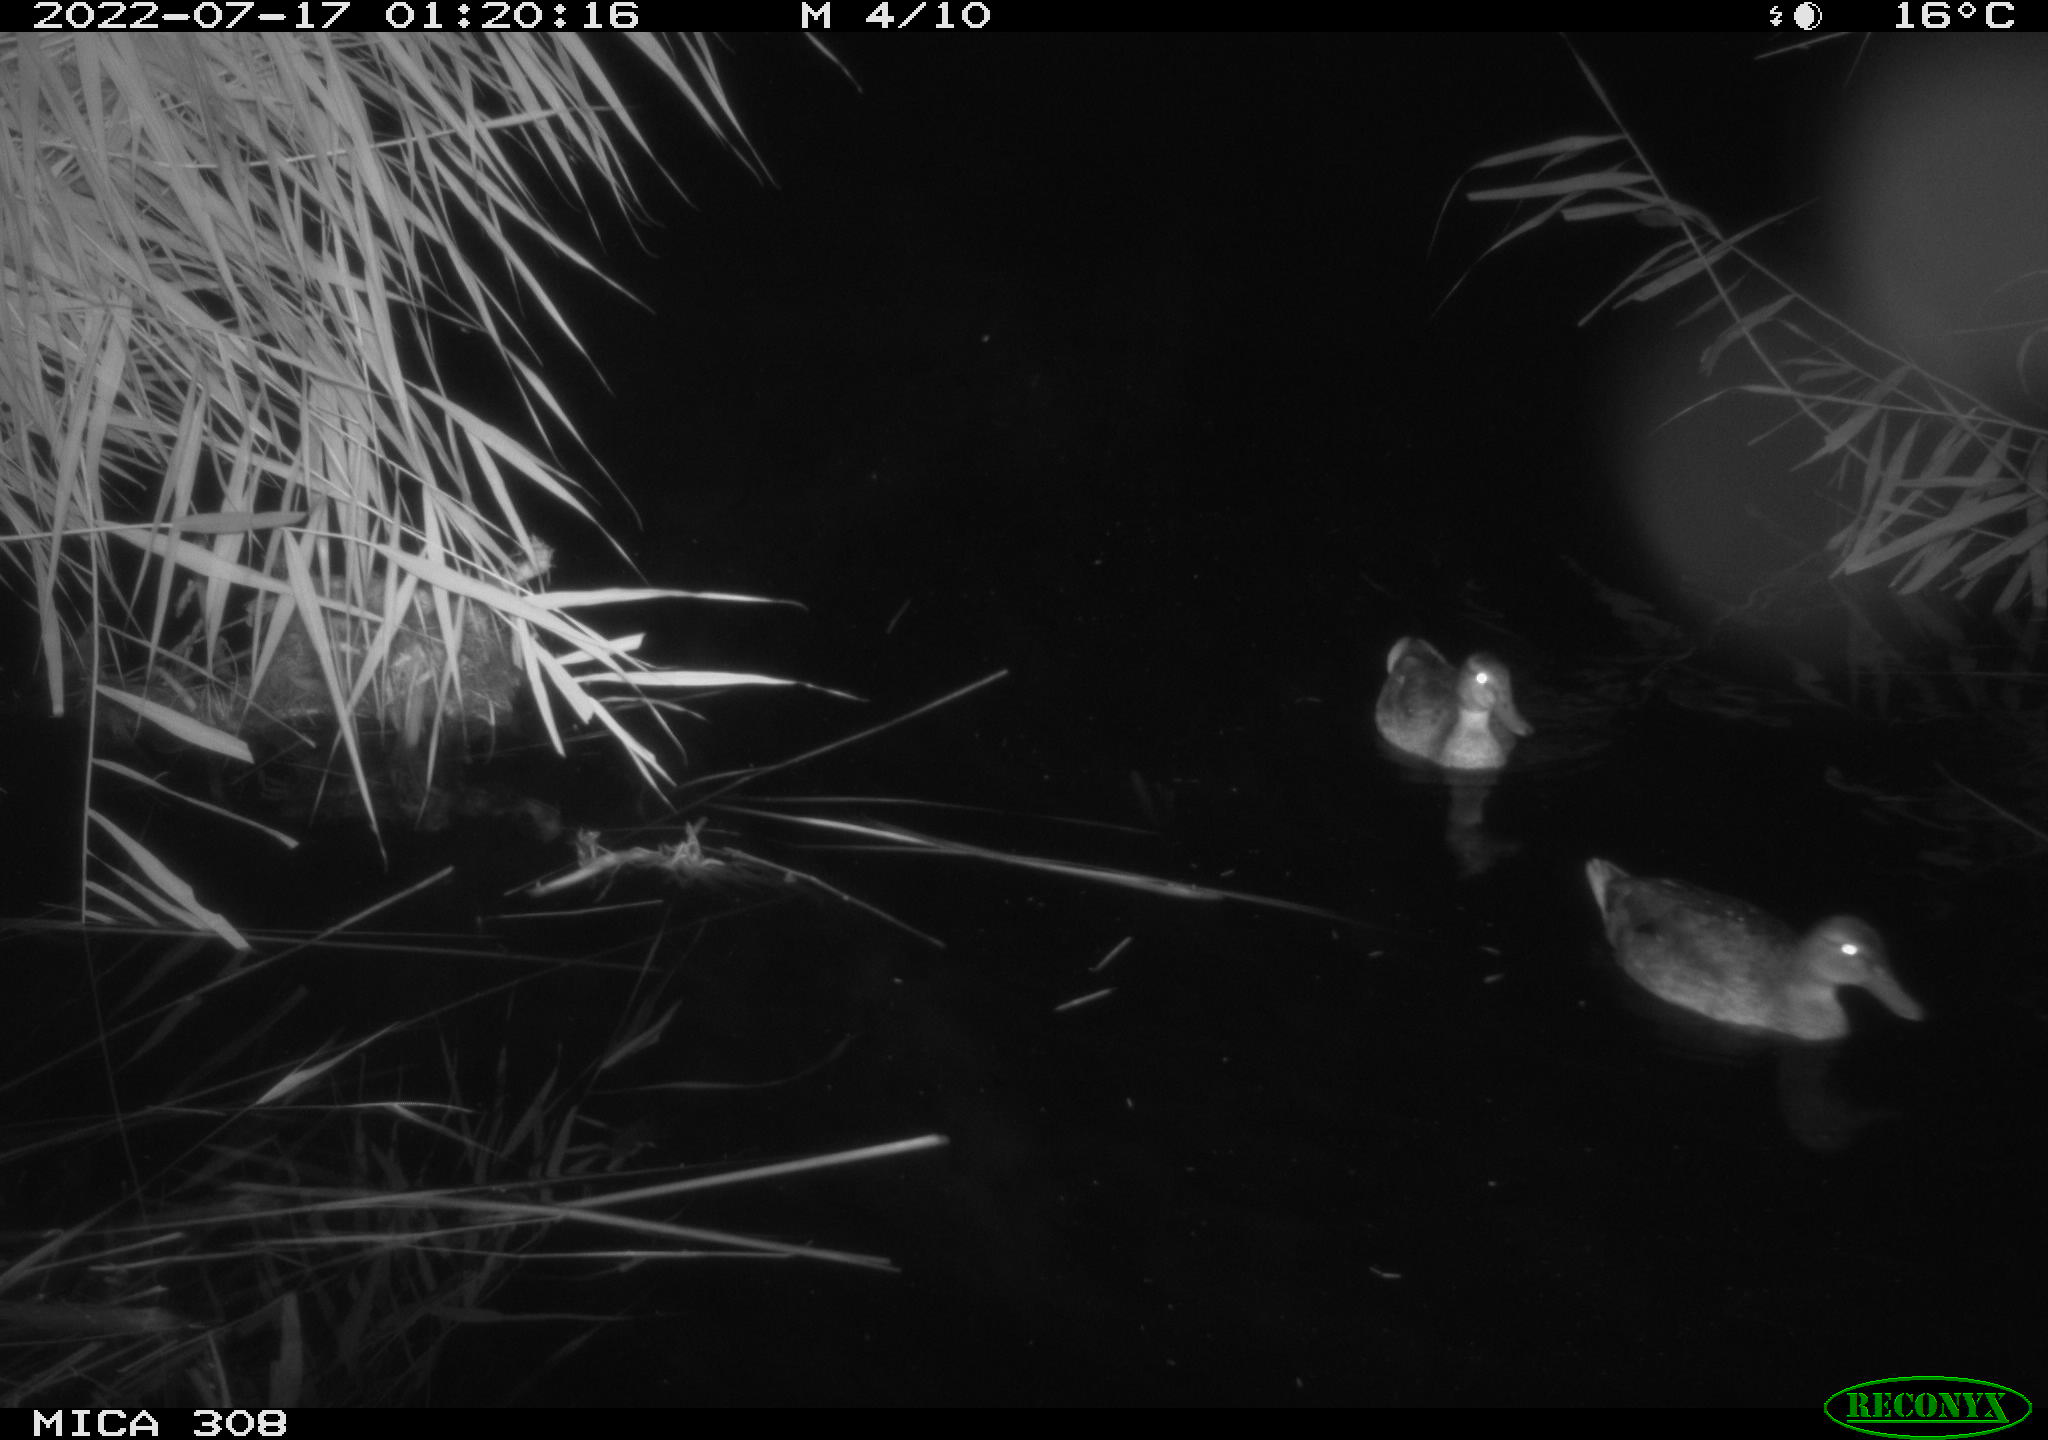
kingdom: Animalia
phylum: Chordata
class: Aves
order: Anseriformes
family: Anatidae
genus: Anas
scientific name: Anas platyrhynchos
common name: Mallard
